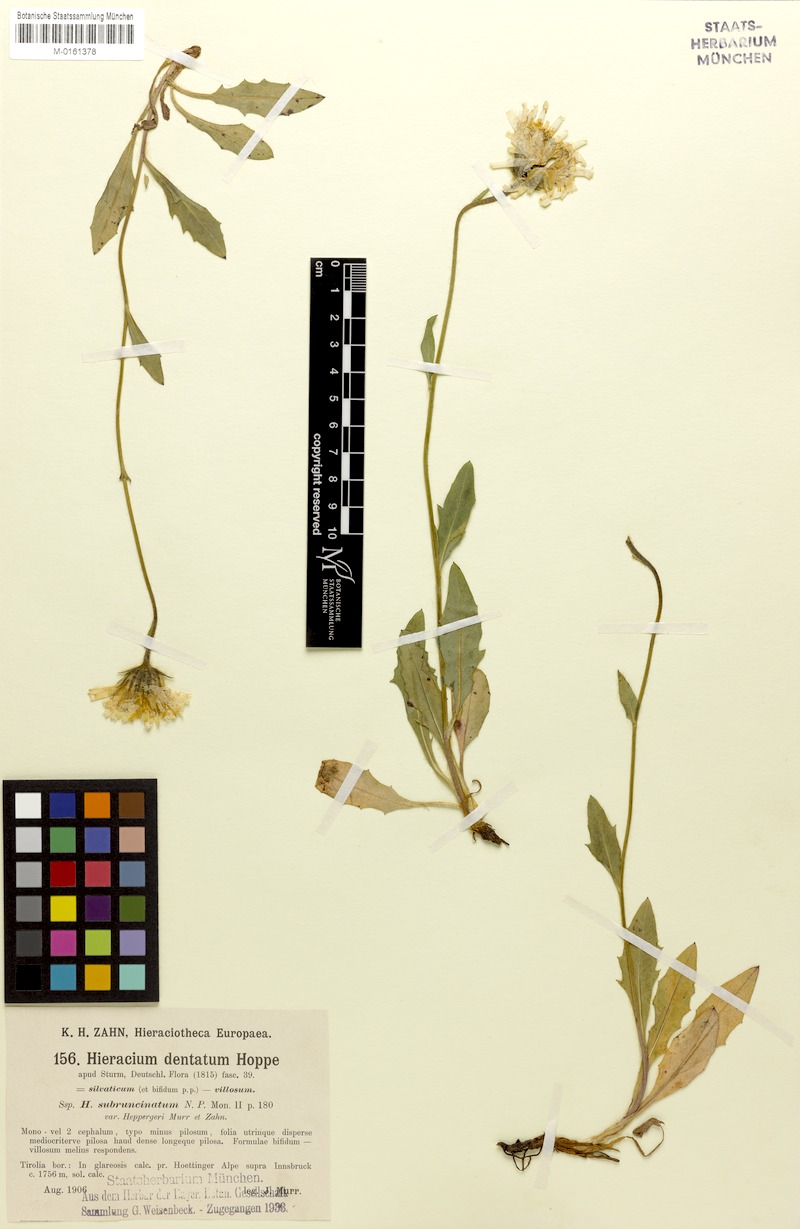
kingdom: Plantae
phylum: Tracheophyta
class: Magnoliopsida
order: Asterales
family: Asteraceae
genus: Hieracium
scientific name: Hieracium dentatum
